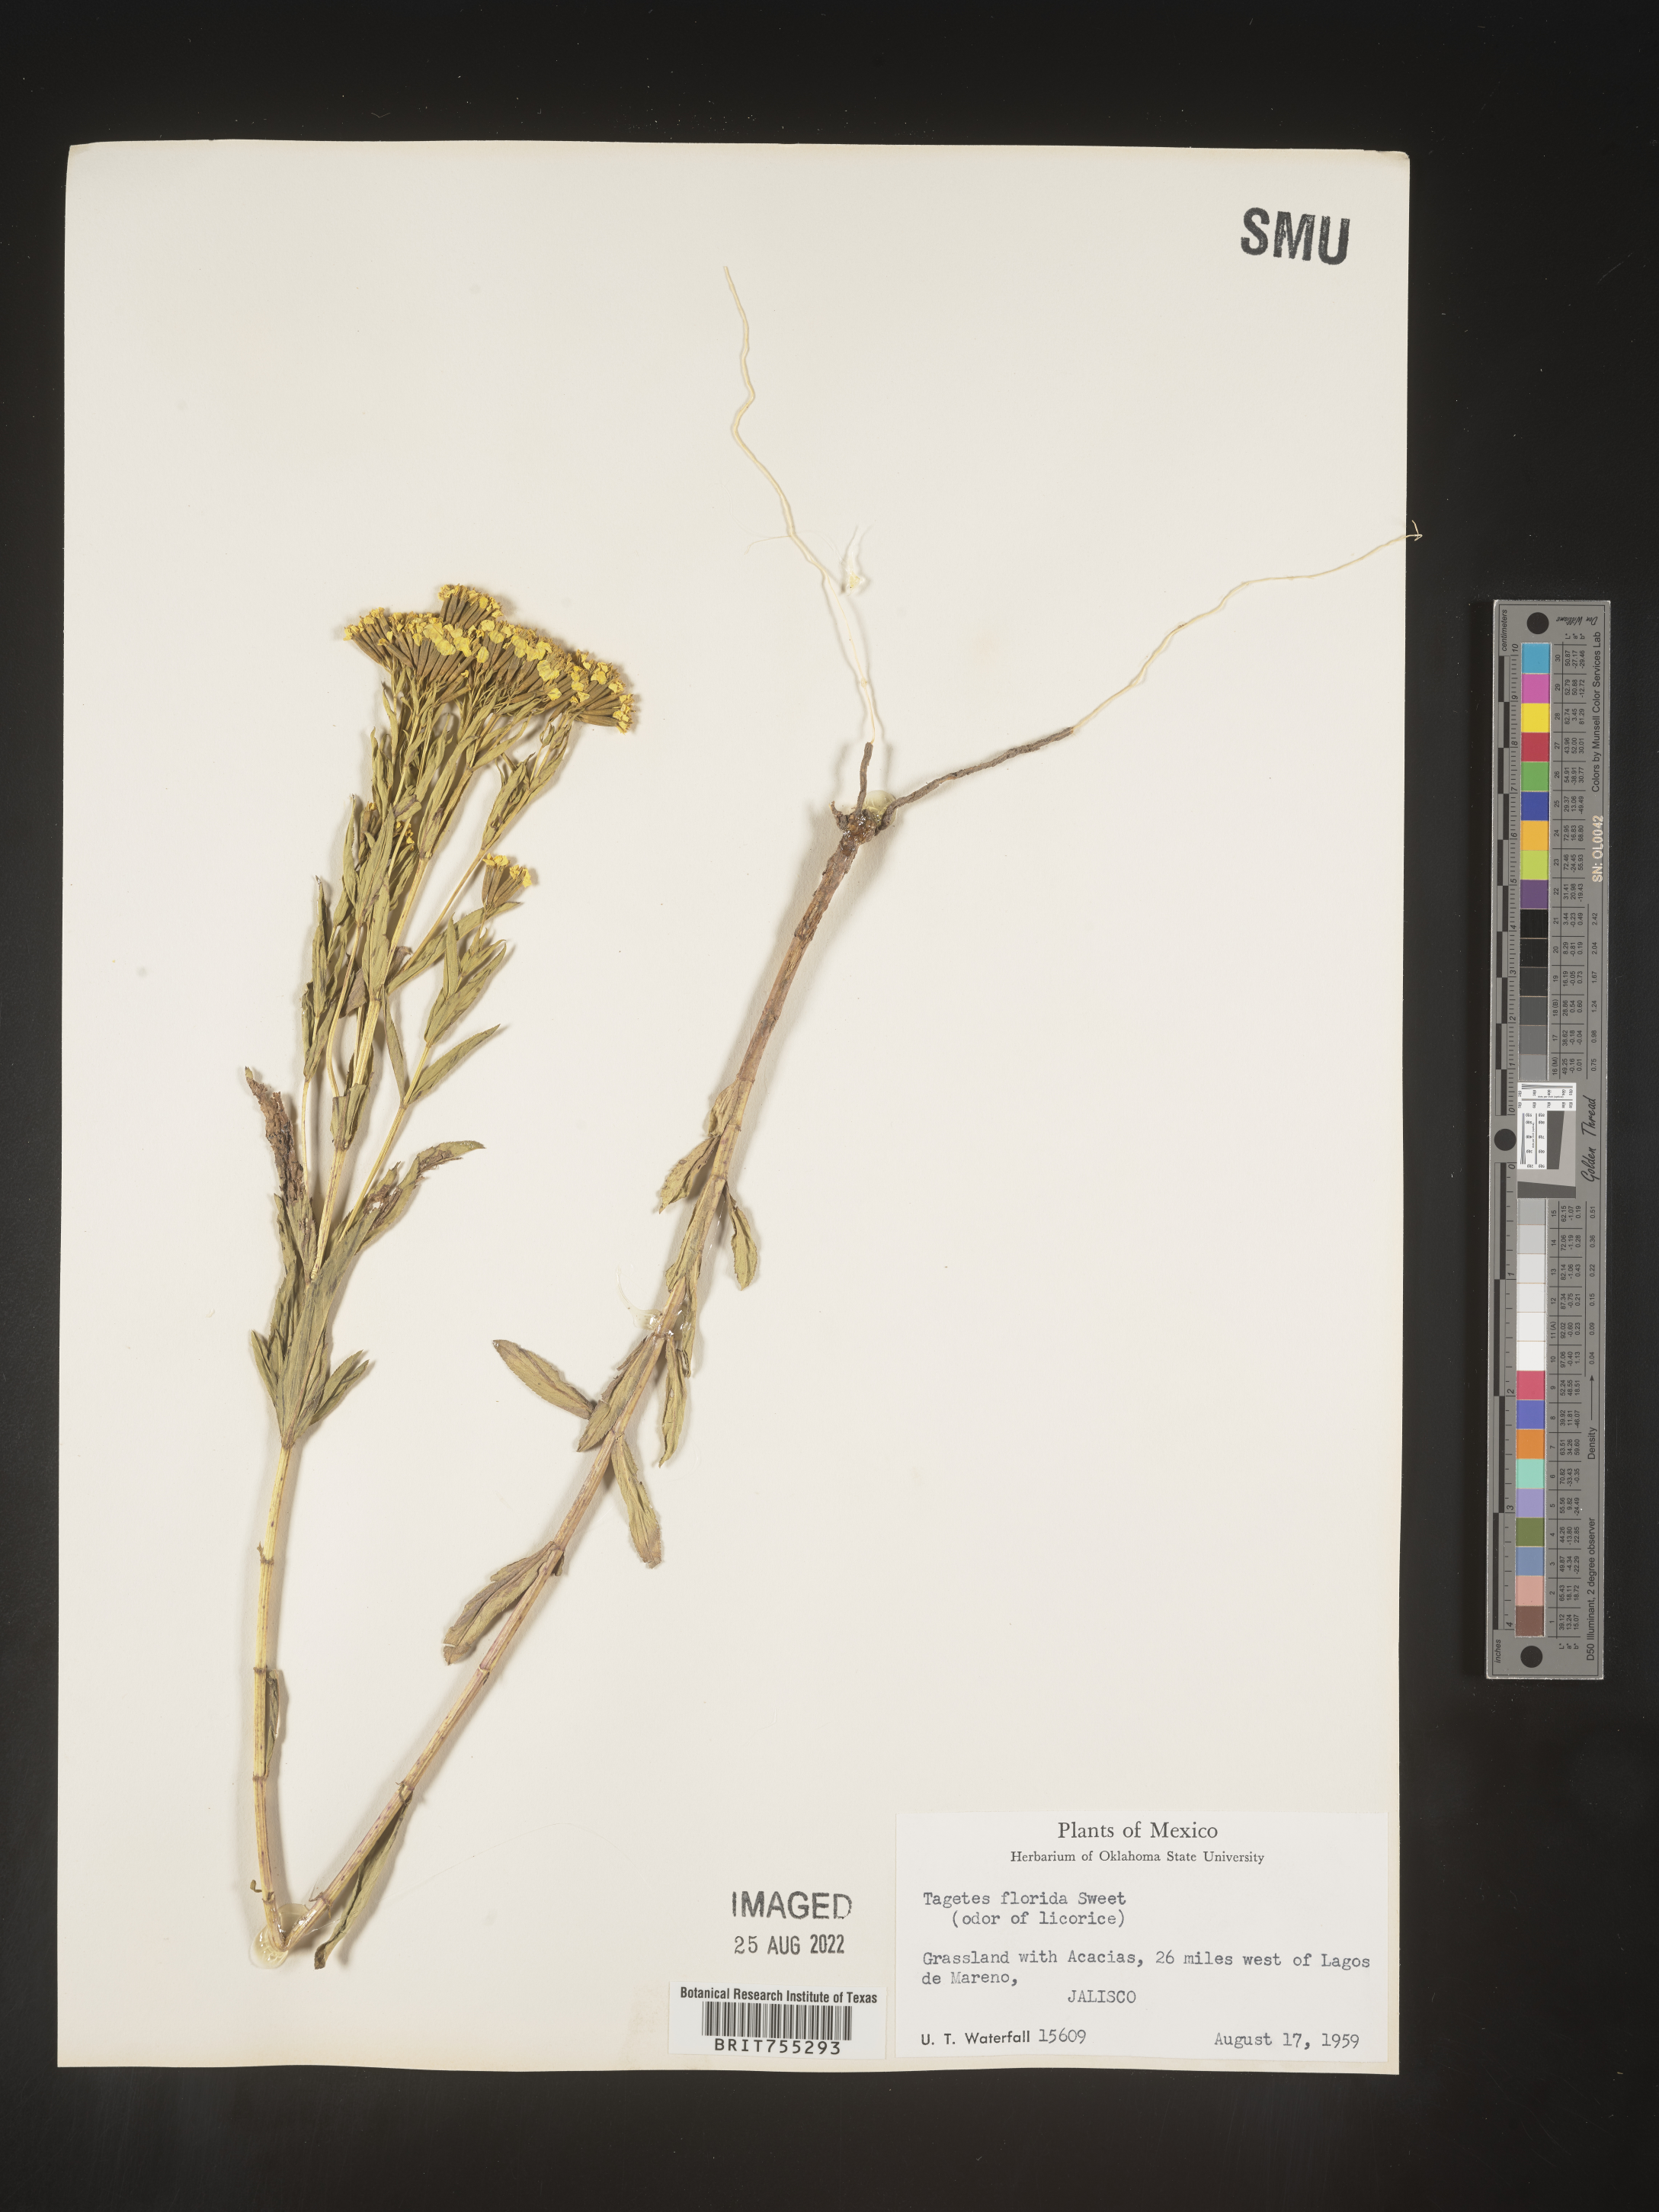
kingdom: Plantae
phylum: Tracheophyta
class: Magnoliopsida
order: Asterales
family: Asteraceae
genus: Tagetes
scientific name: Tagetes
